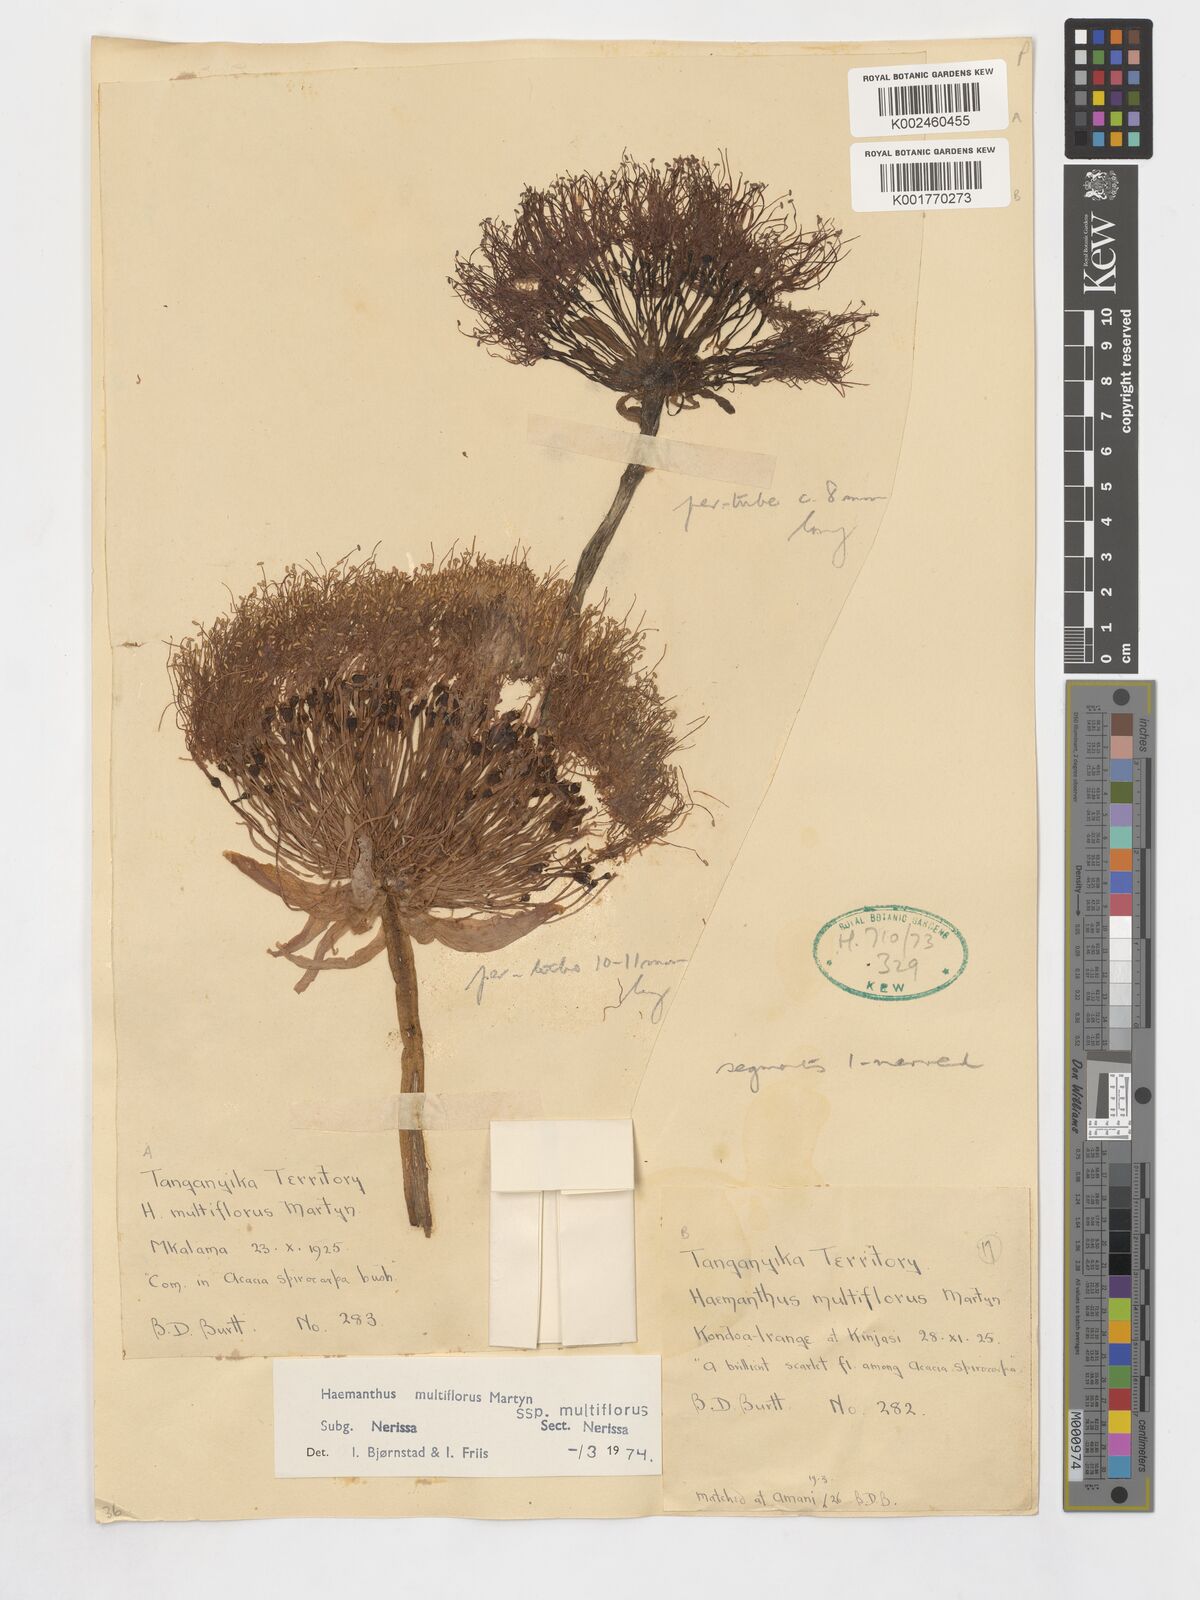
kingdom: Plantae
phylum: Tracheophyta
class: Liliopsida
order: Asparagales
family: Amaryllidaceae
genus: Scadoxus
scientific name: Scadoxus multiflorus
